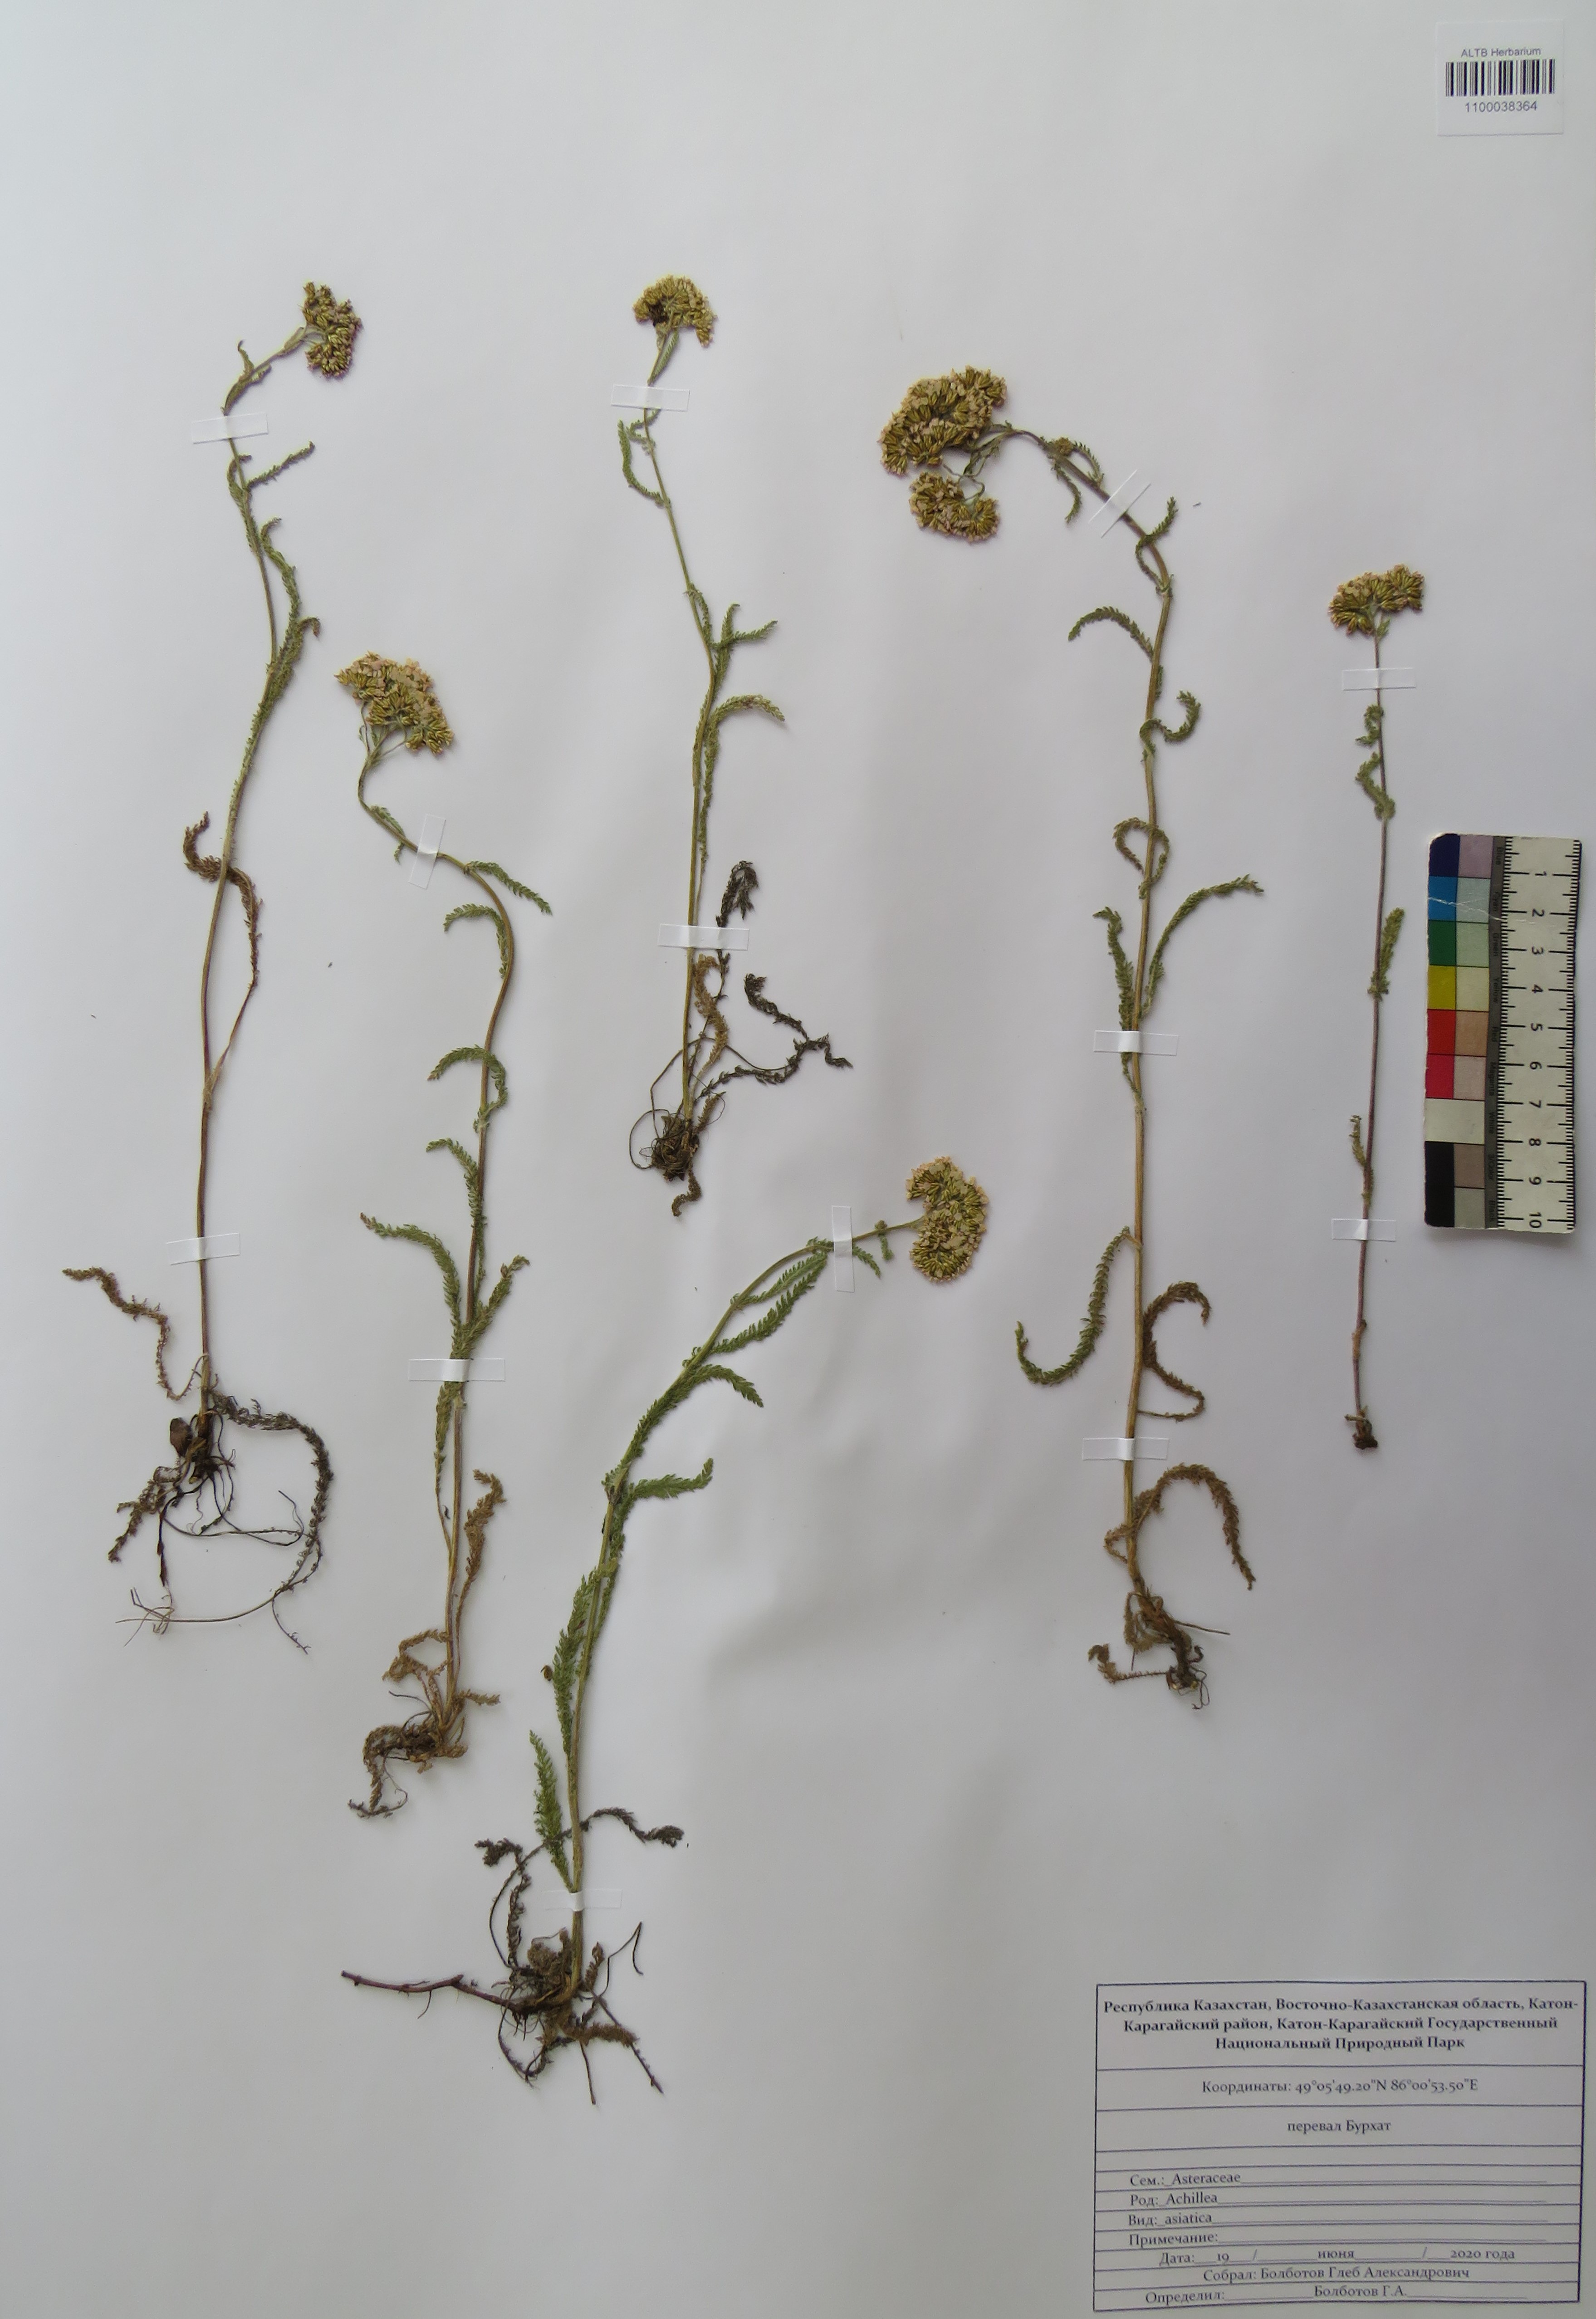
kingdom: Plantae
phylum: Tracheophyta
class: Magnoliopsida
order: Asterales
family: Asteraceae
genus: Achillea
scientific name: Achillea asiatica
